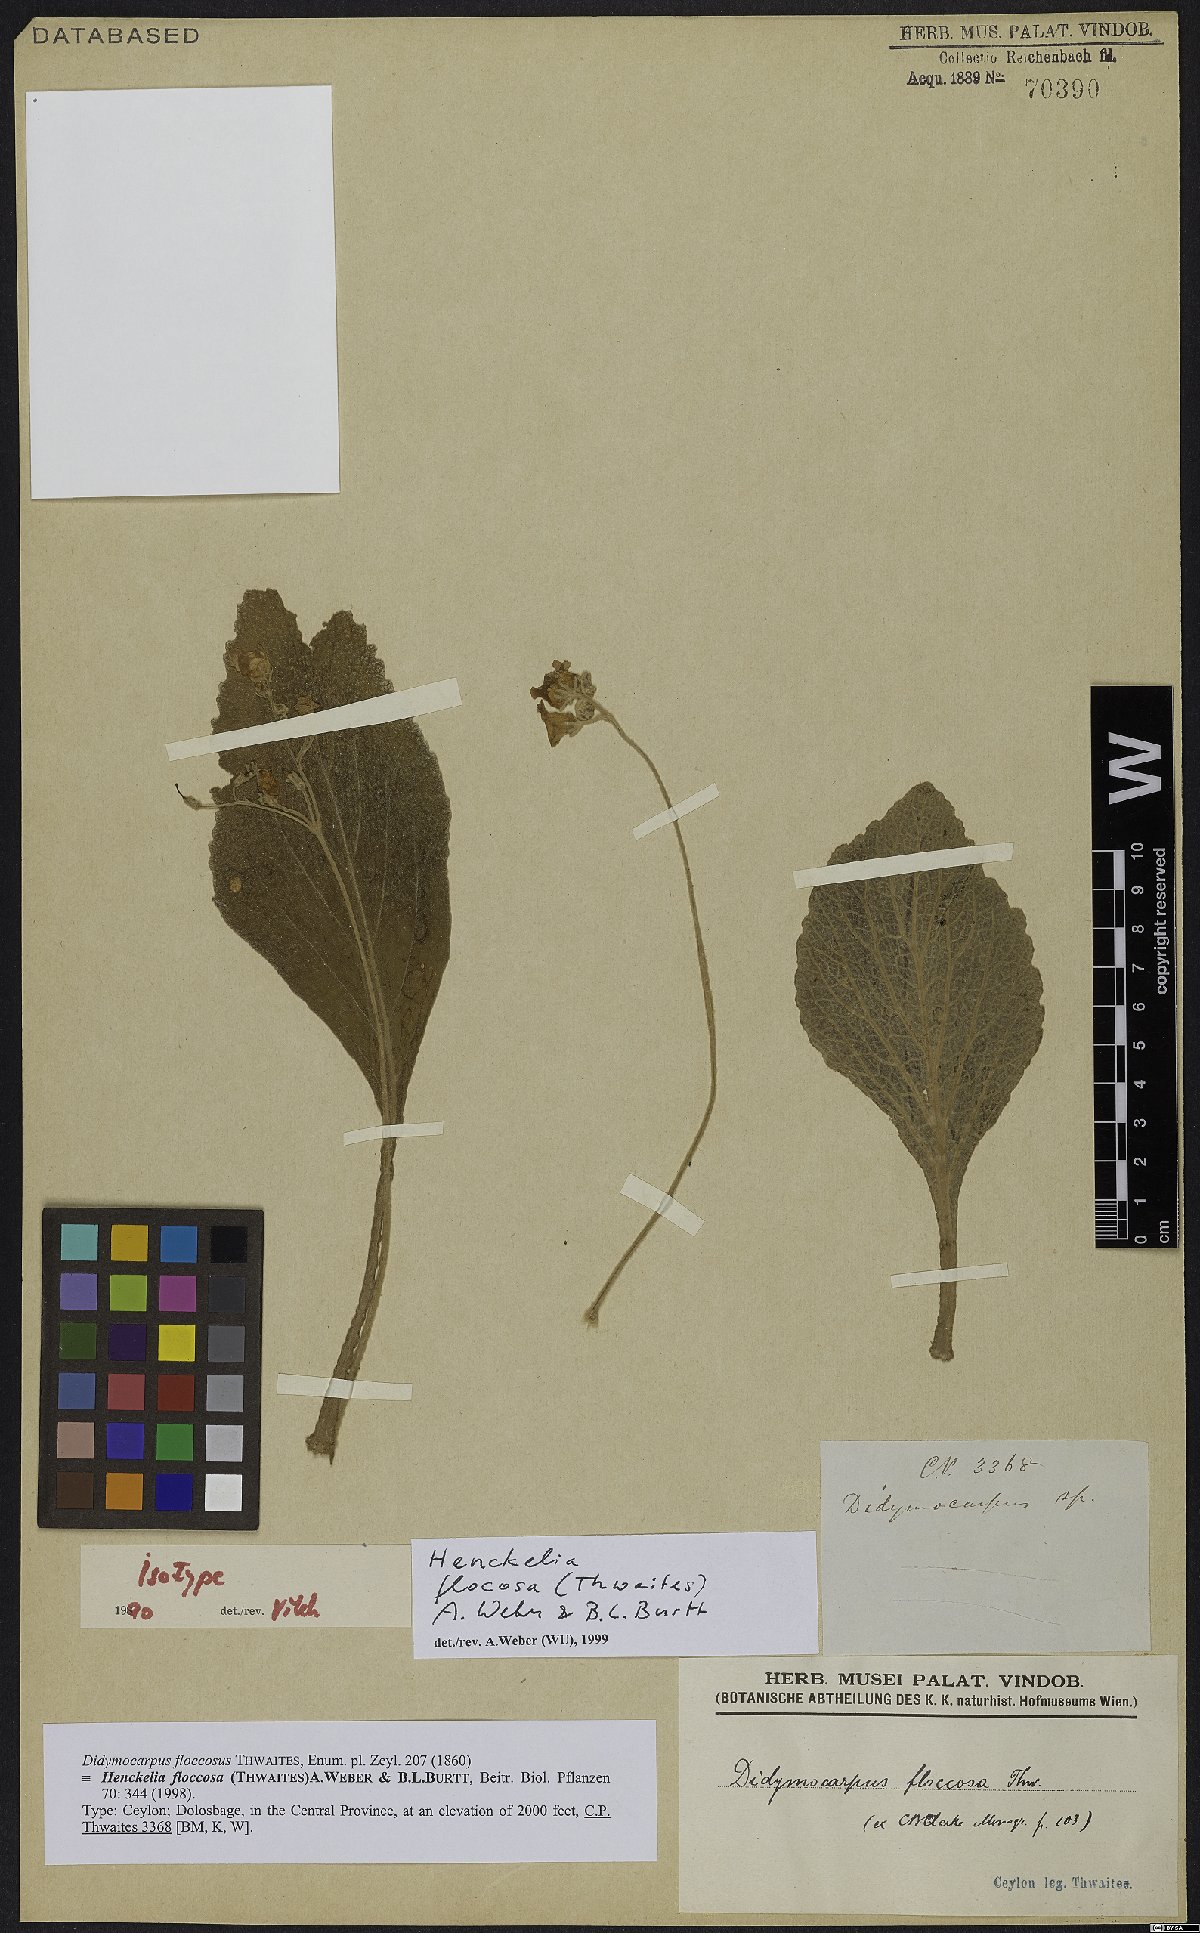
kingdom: Plantae
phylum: Tracheophyta
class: Magnoliopsida
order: Lamiales
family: Gesneriaceae
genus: Henckelia
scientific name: Henckelia floccosa
